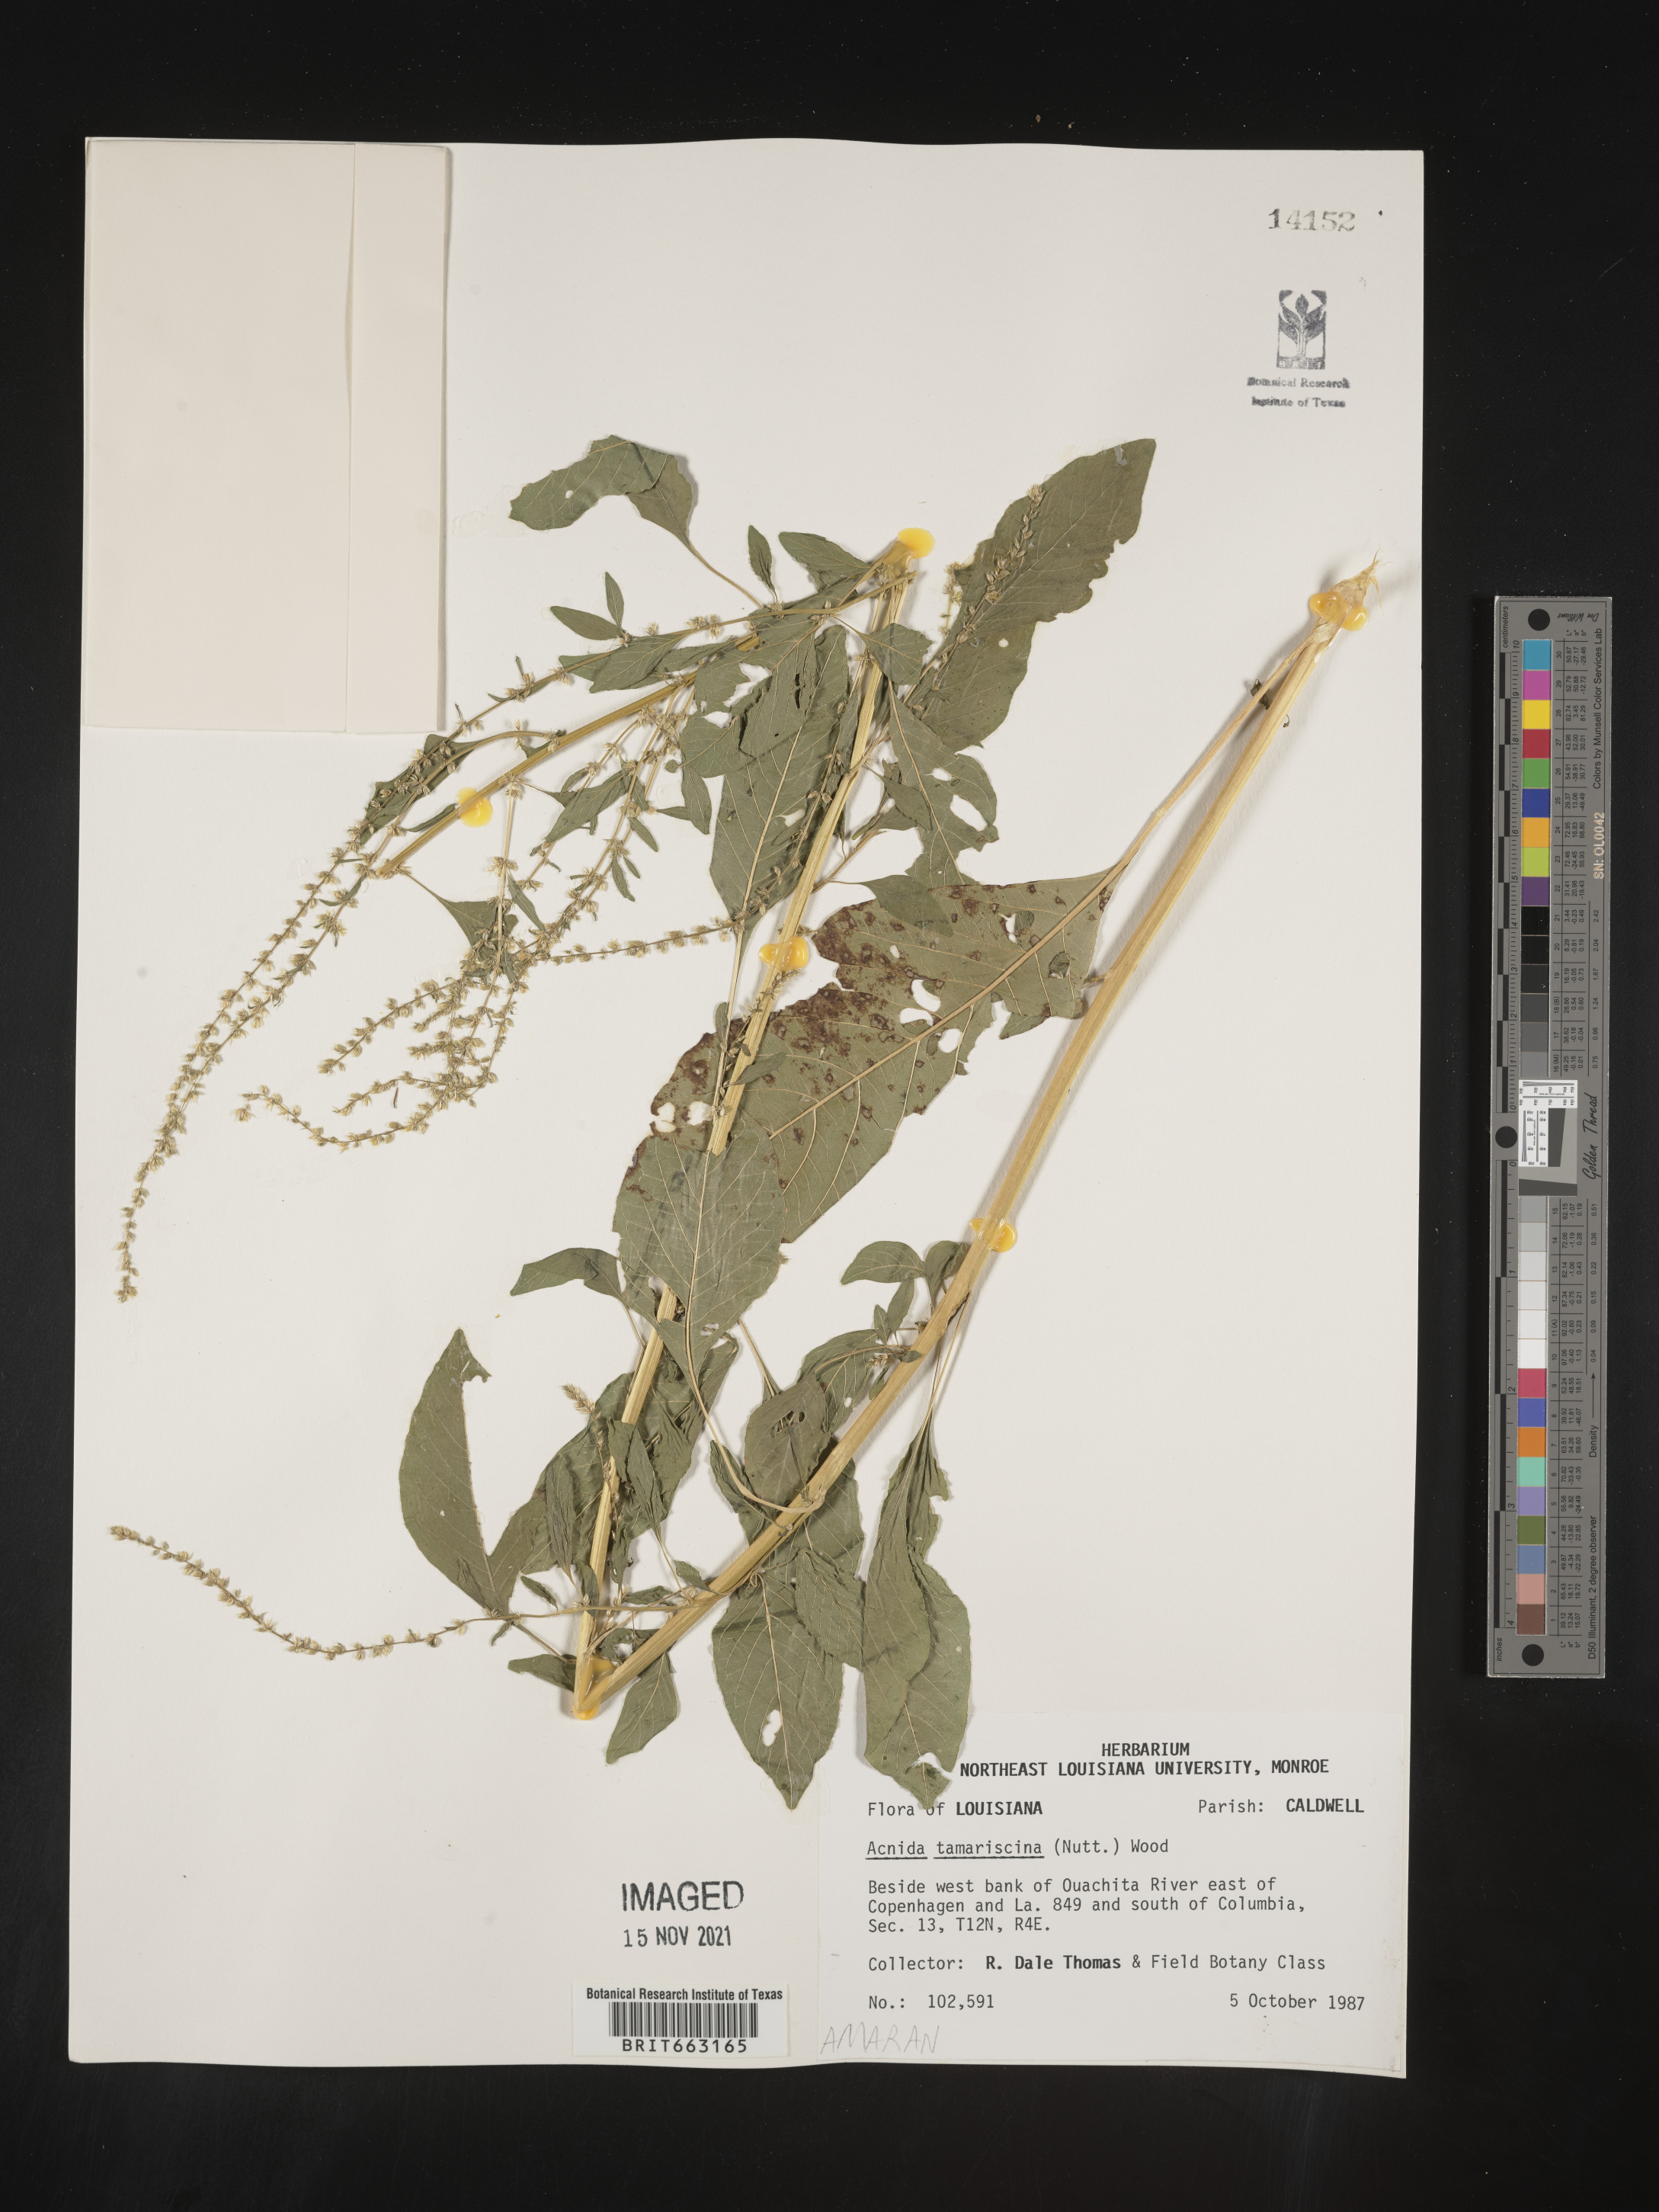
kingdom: Plantae
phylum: Tracheophyta
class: Magnoliopsida
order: Caryophyllales
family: Amaranthaceae
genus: Amaranthus
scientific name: Amaranthus tamariscinus
